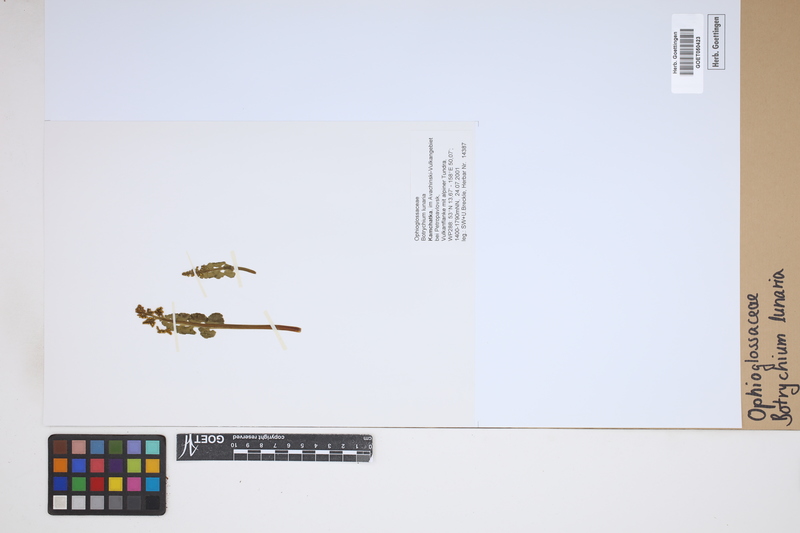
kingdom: Plantae
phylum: Tracheophyta
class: Polypodiopsida
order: Ophioglossales
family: Ophioglossaceae
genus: Botrychium
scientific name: Botrychium lunaria
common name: Moonwort
